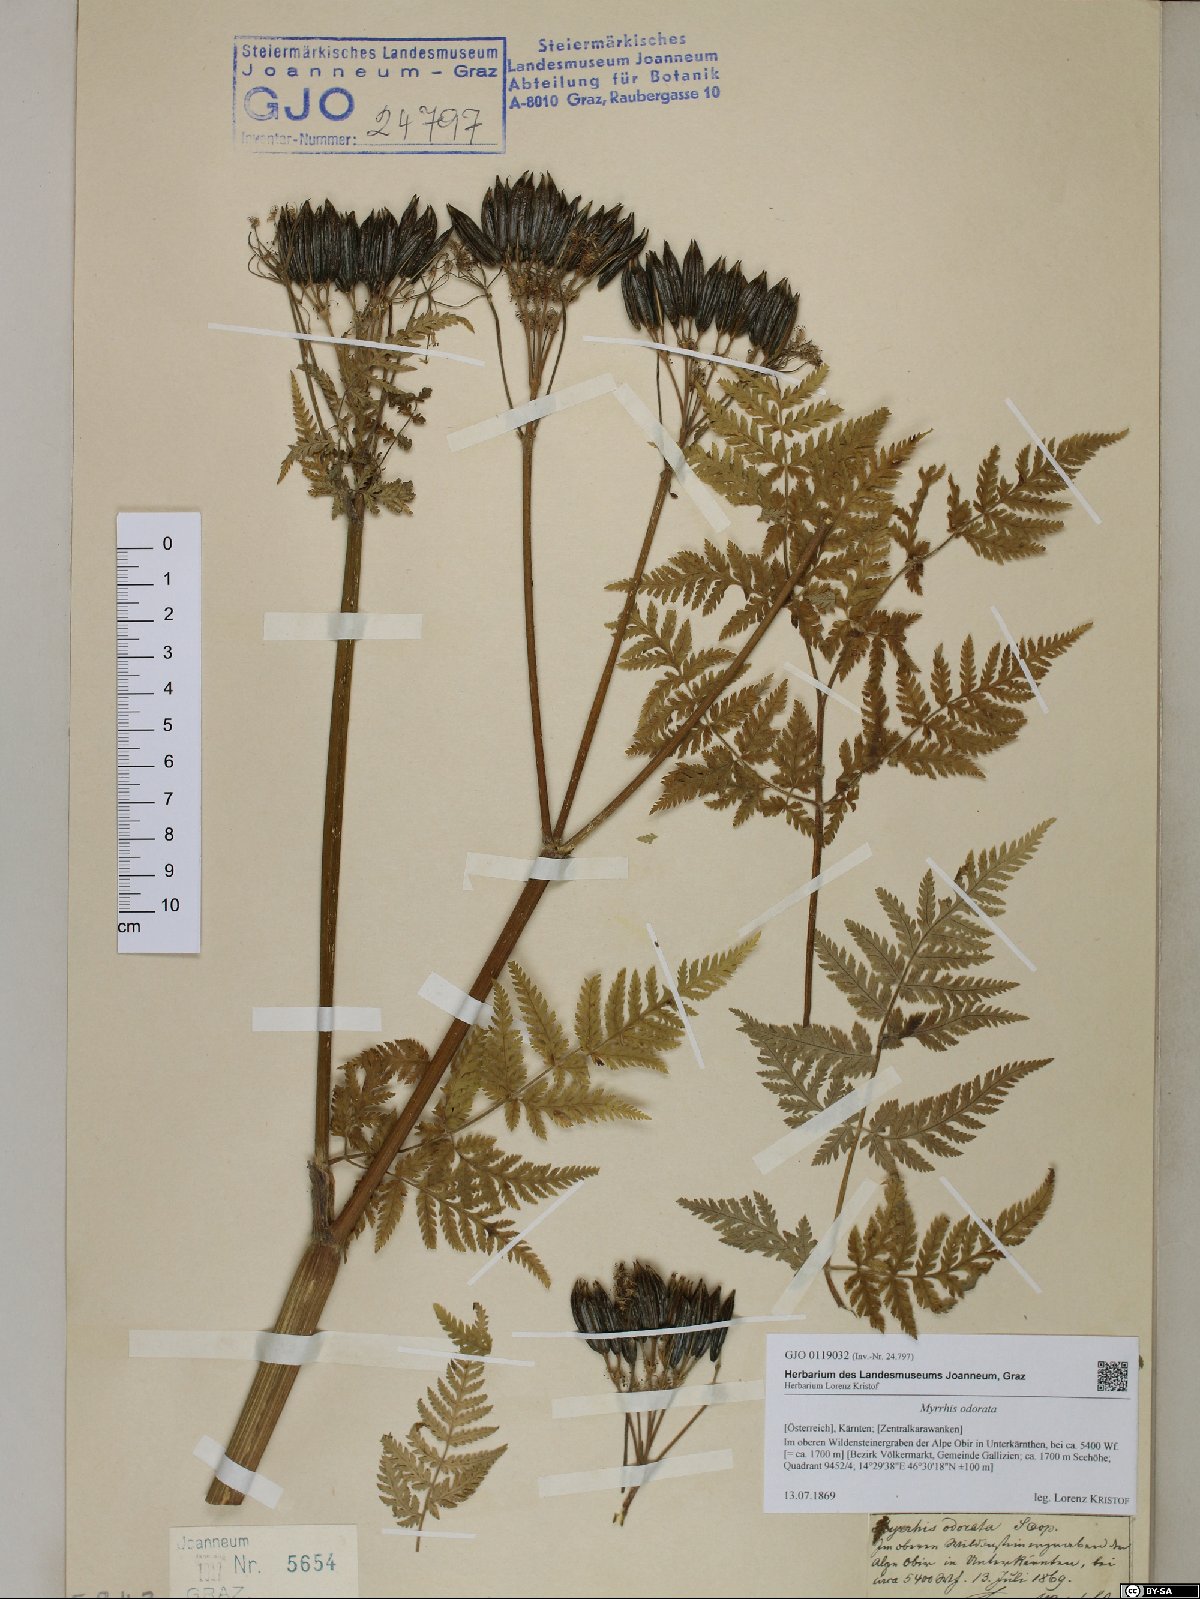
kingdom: Plantae
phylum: Tracheophyta
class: Magnoliopsida
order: Apiales
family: Apiaceae
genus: Myrrhis
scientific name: Myrrhis odorata
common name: Sweet cicely
